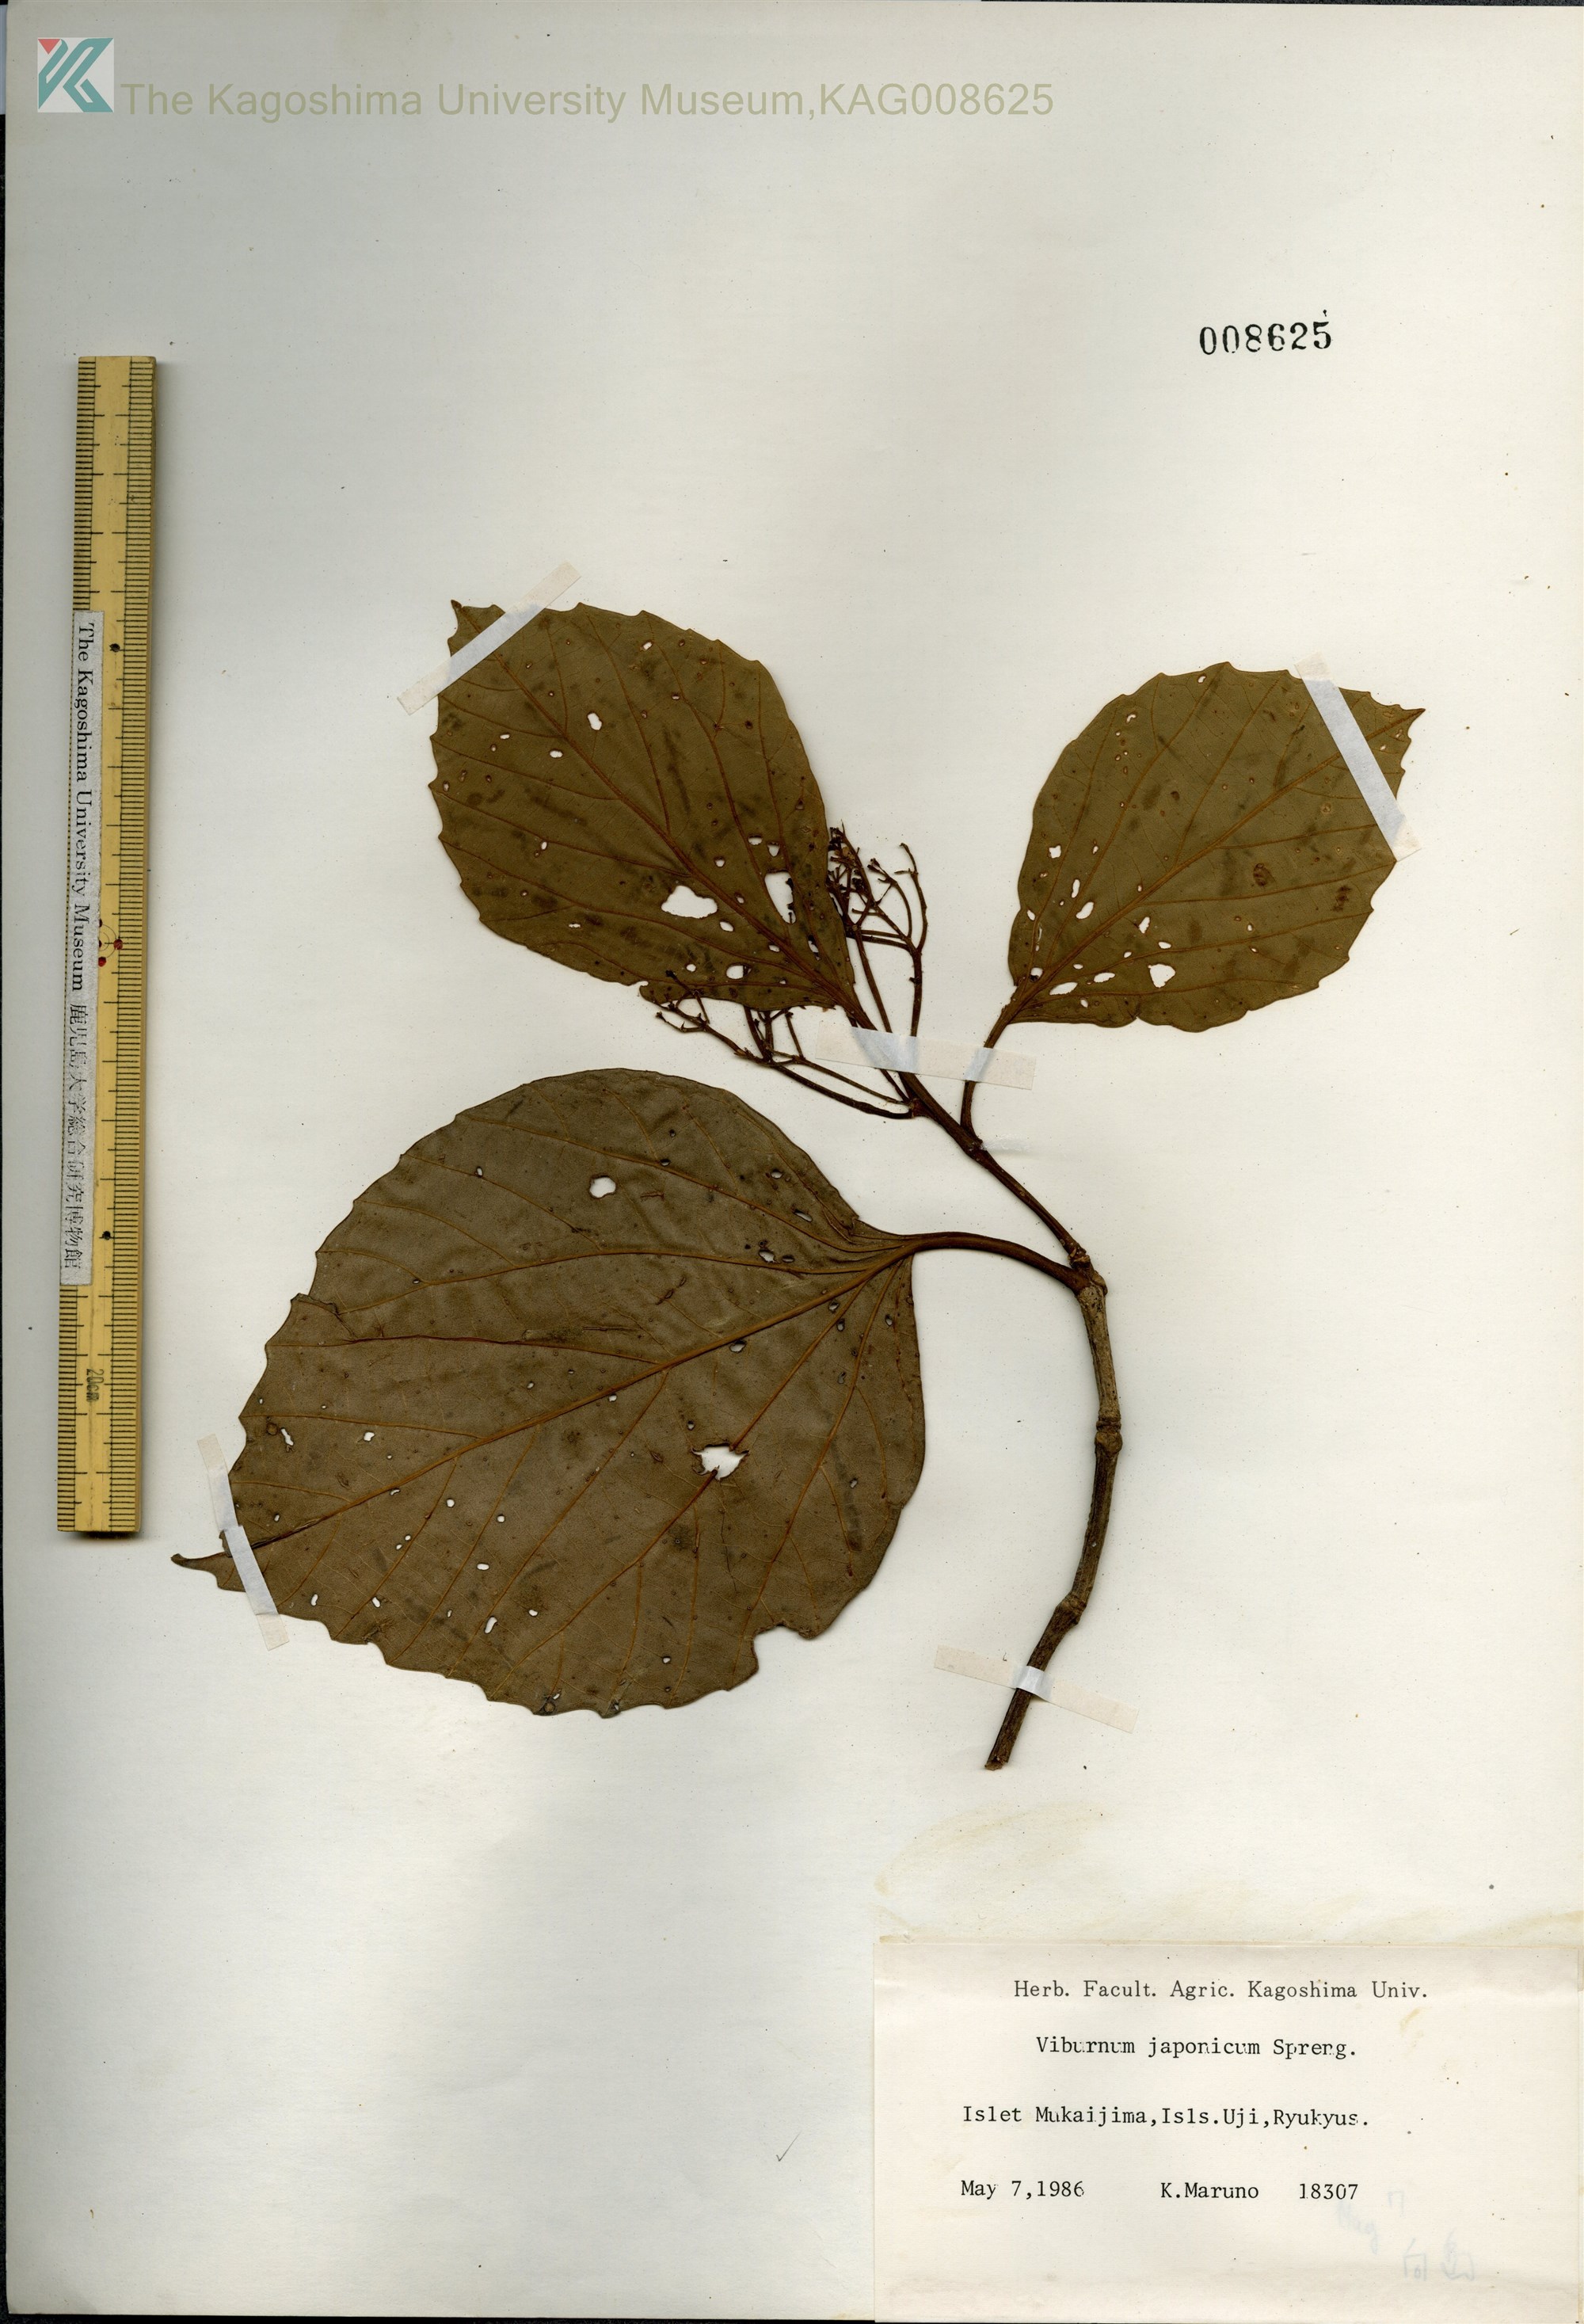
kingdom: Plantae
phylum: Tracheophyta
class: Magnoliopsida
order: Dipsacales
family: Viburnaceae
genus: Viburnum
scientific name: Viburnum japonicum
